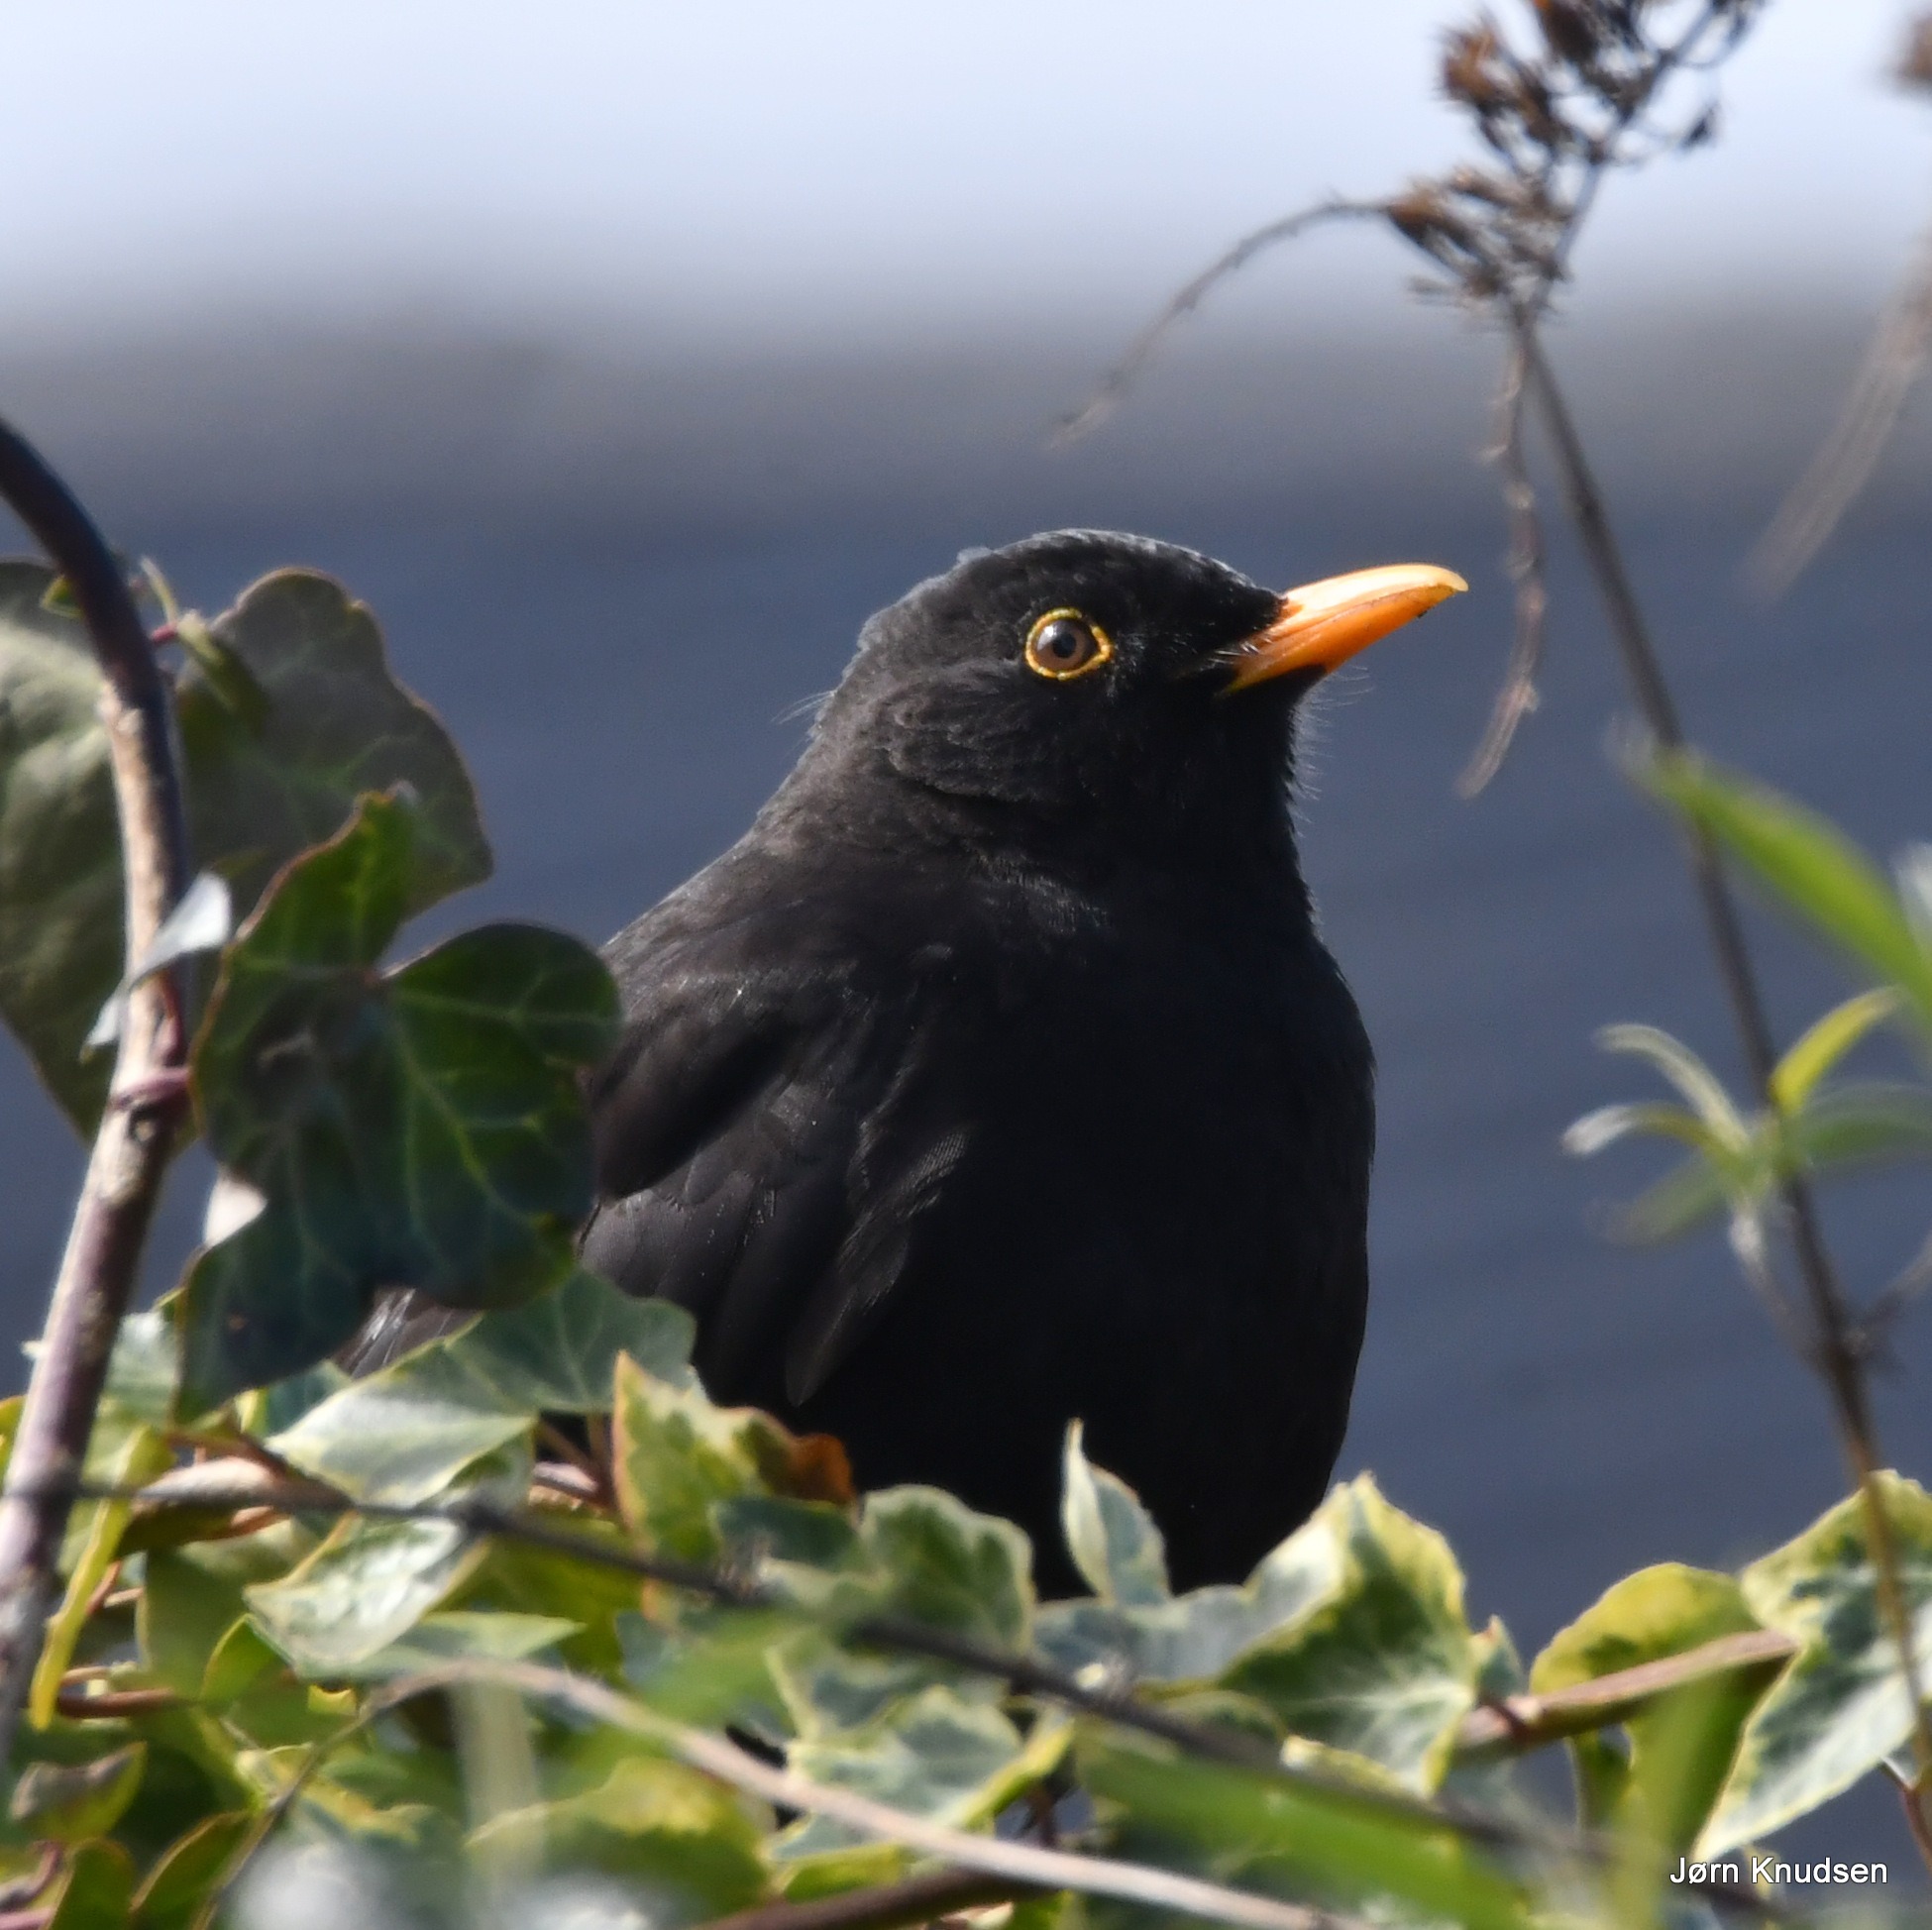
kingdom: Animalia
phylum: Chordata
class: Aves
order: Passeriformes
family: Turdidae
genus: Turdus
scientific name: Turdus merula
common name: Solsort
